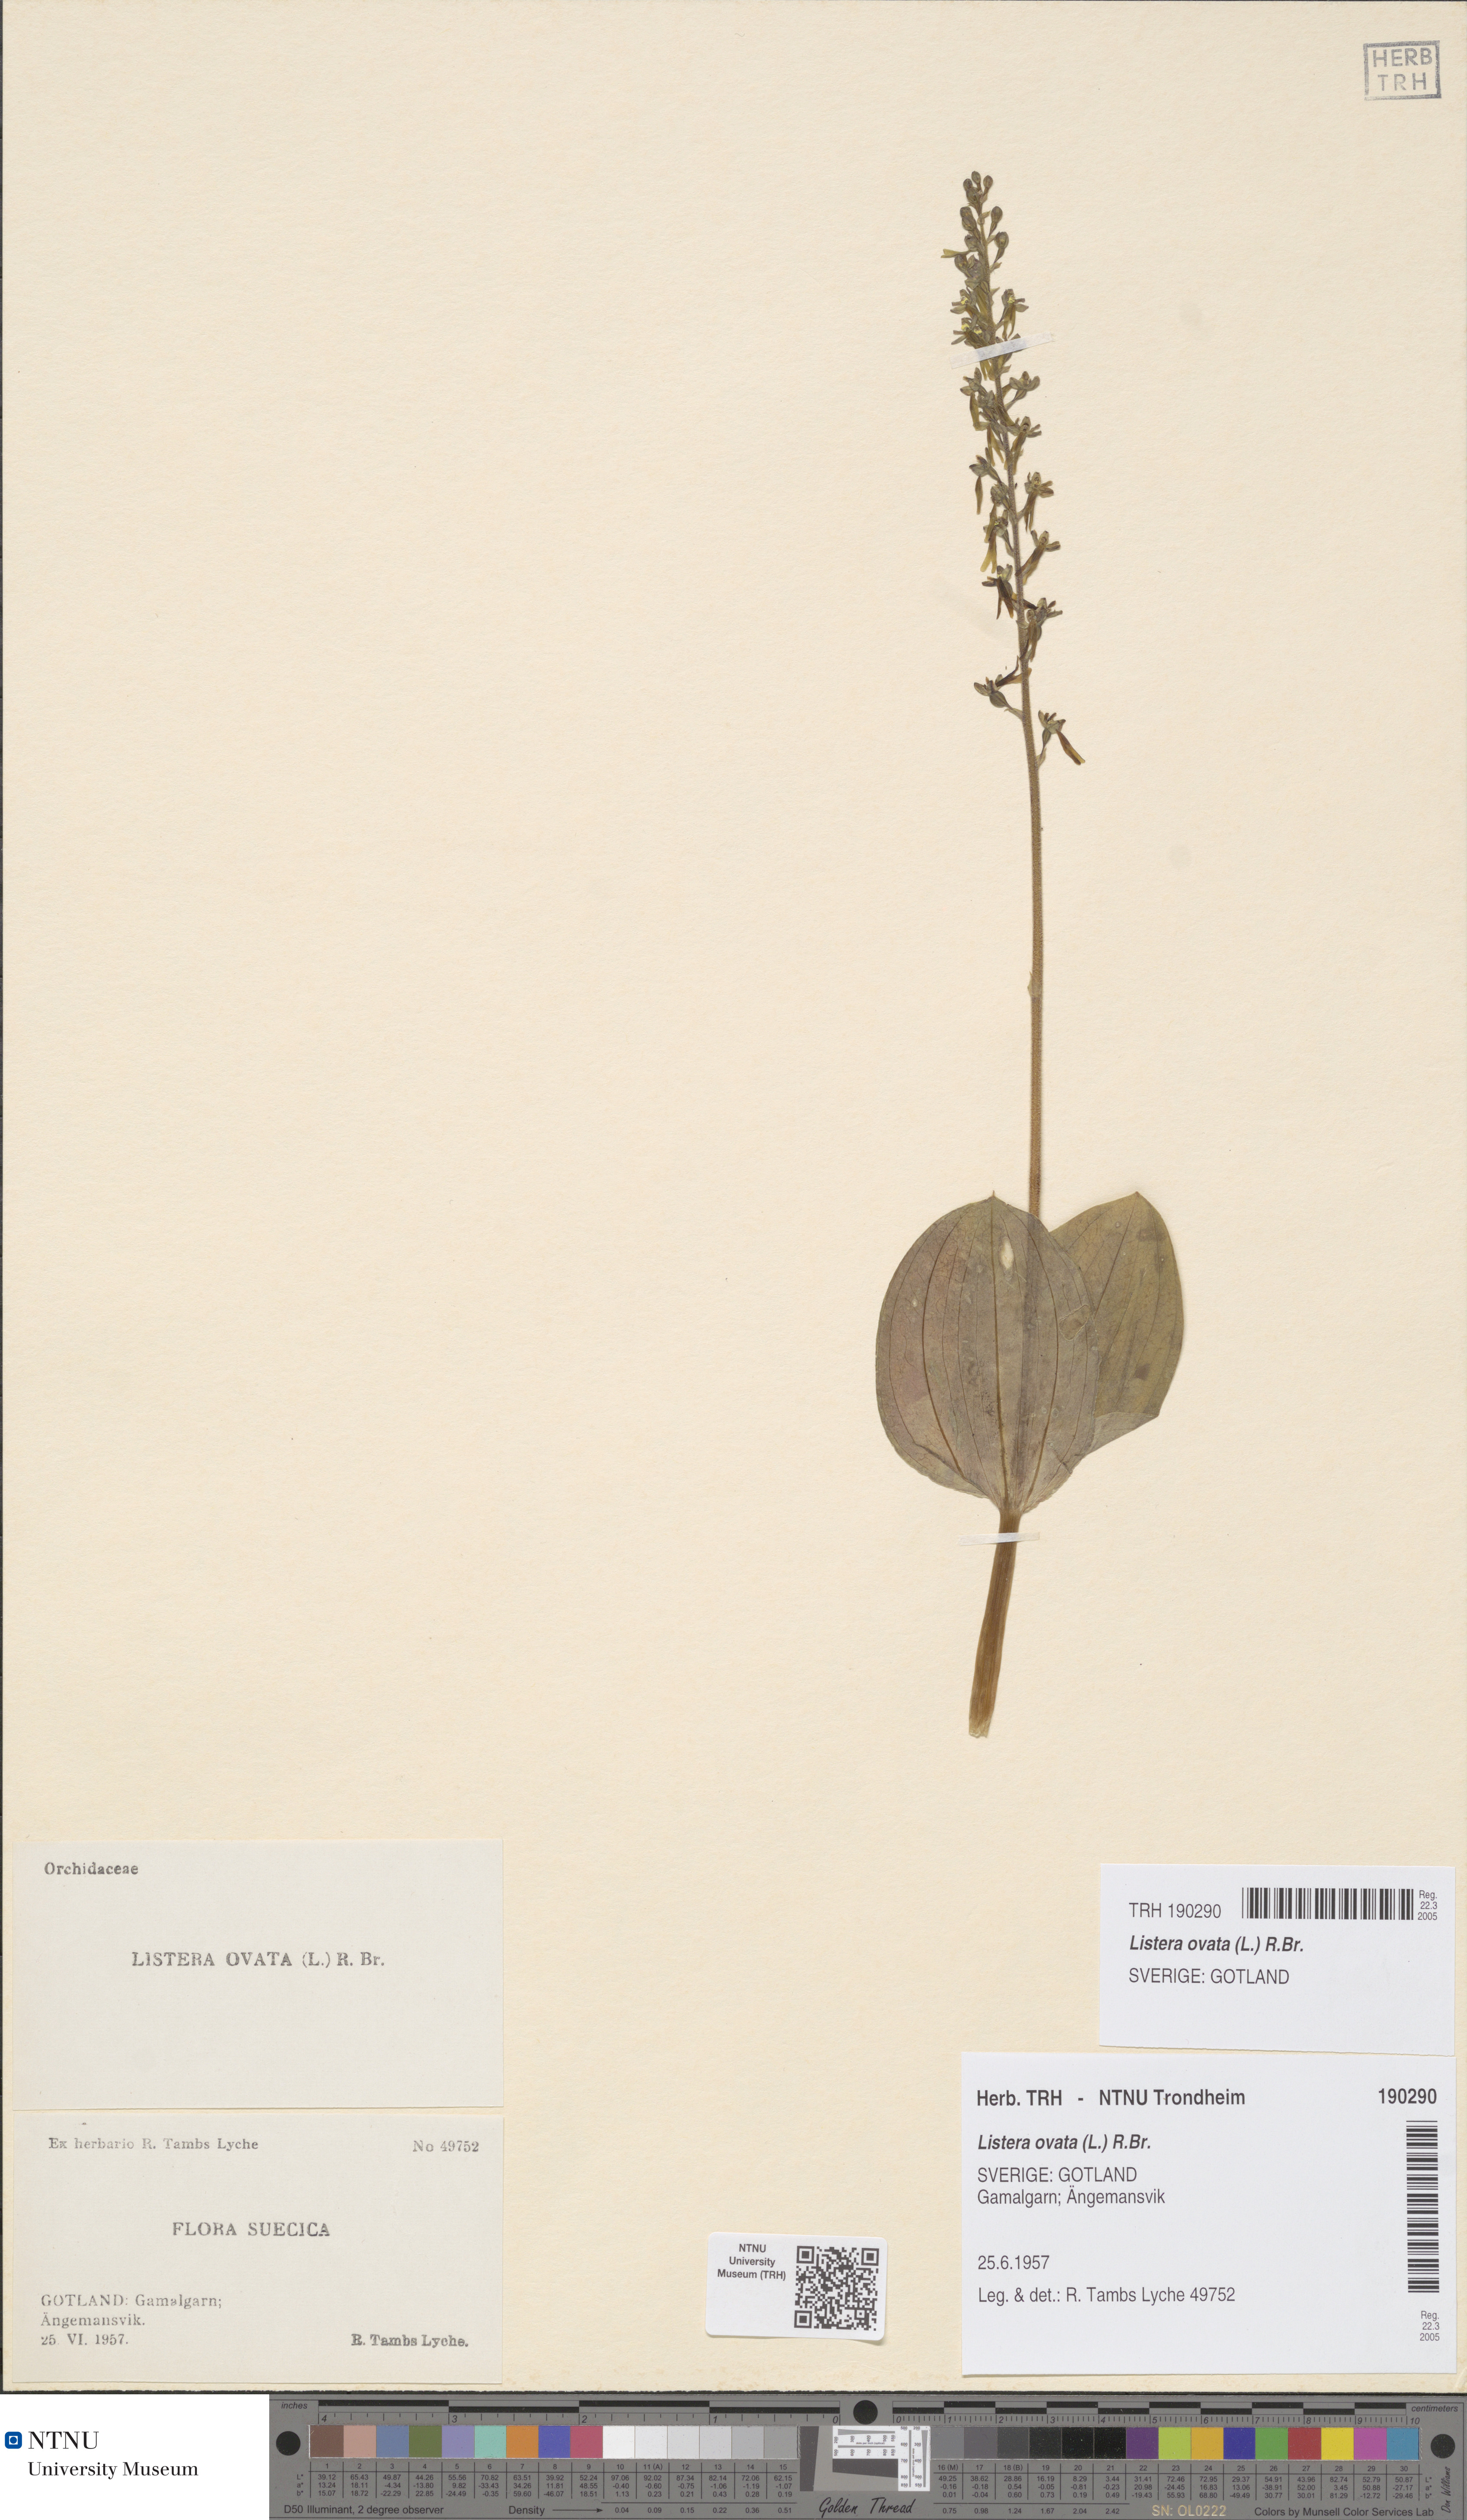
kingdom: Plantae
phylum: Tracheophyta
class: Liliopsida
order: Asparagales
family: Orchidaceae
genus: Neottia
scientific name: Neottia ovata
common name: Common twayblade
